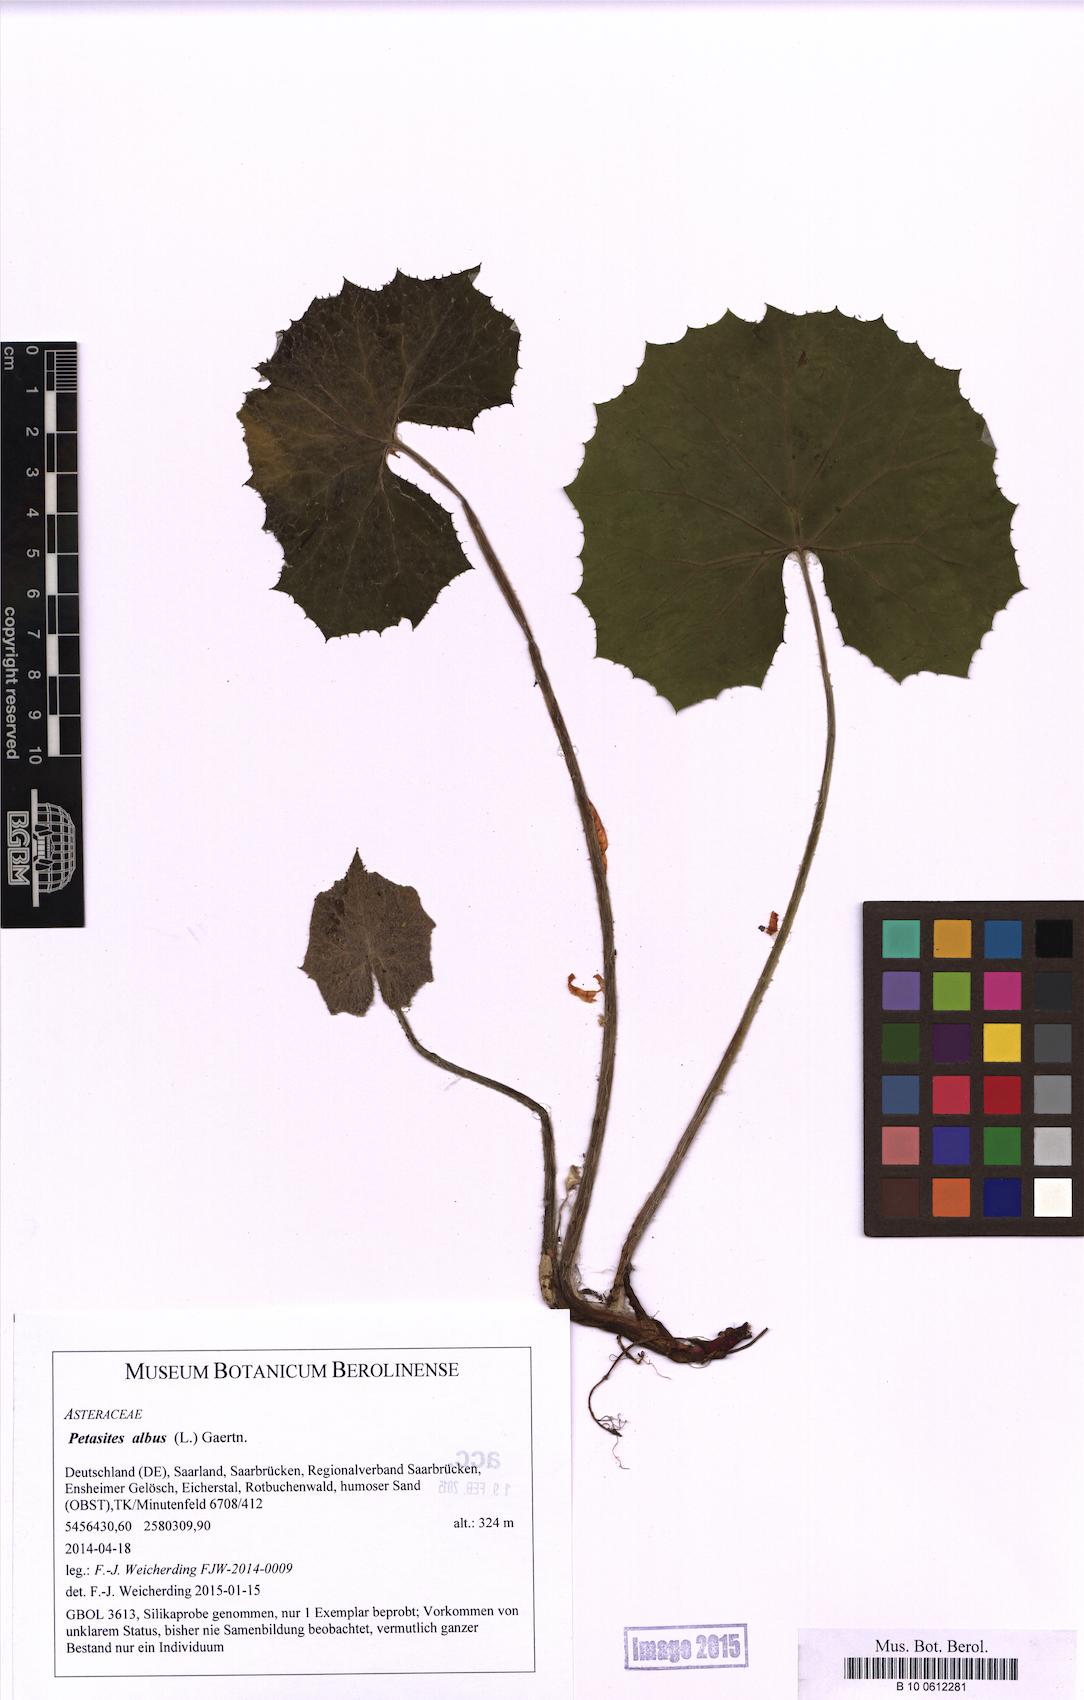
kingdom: Plantae
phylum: Tracheophyta
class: Magnoliopsida
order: Asterales
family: Asteraceae
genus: Petasites
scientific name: Petasites albus
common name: White butterbur
